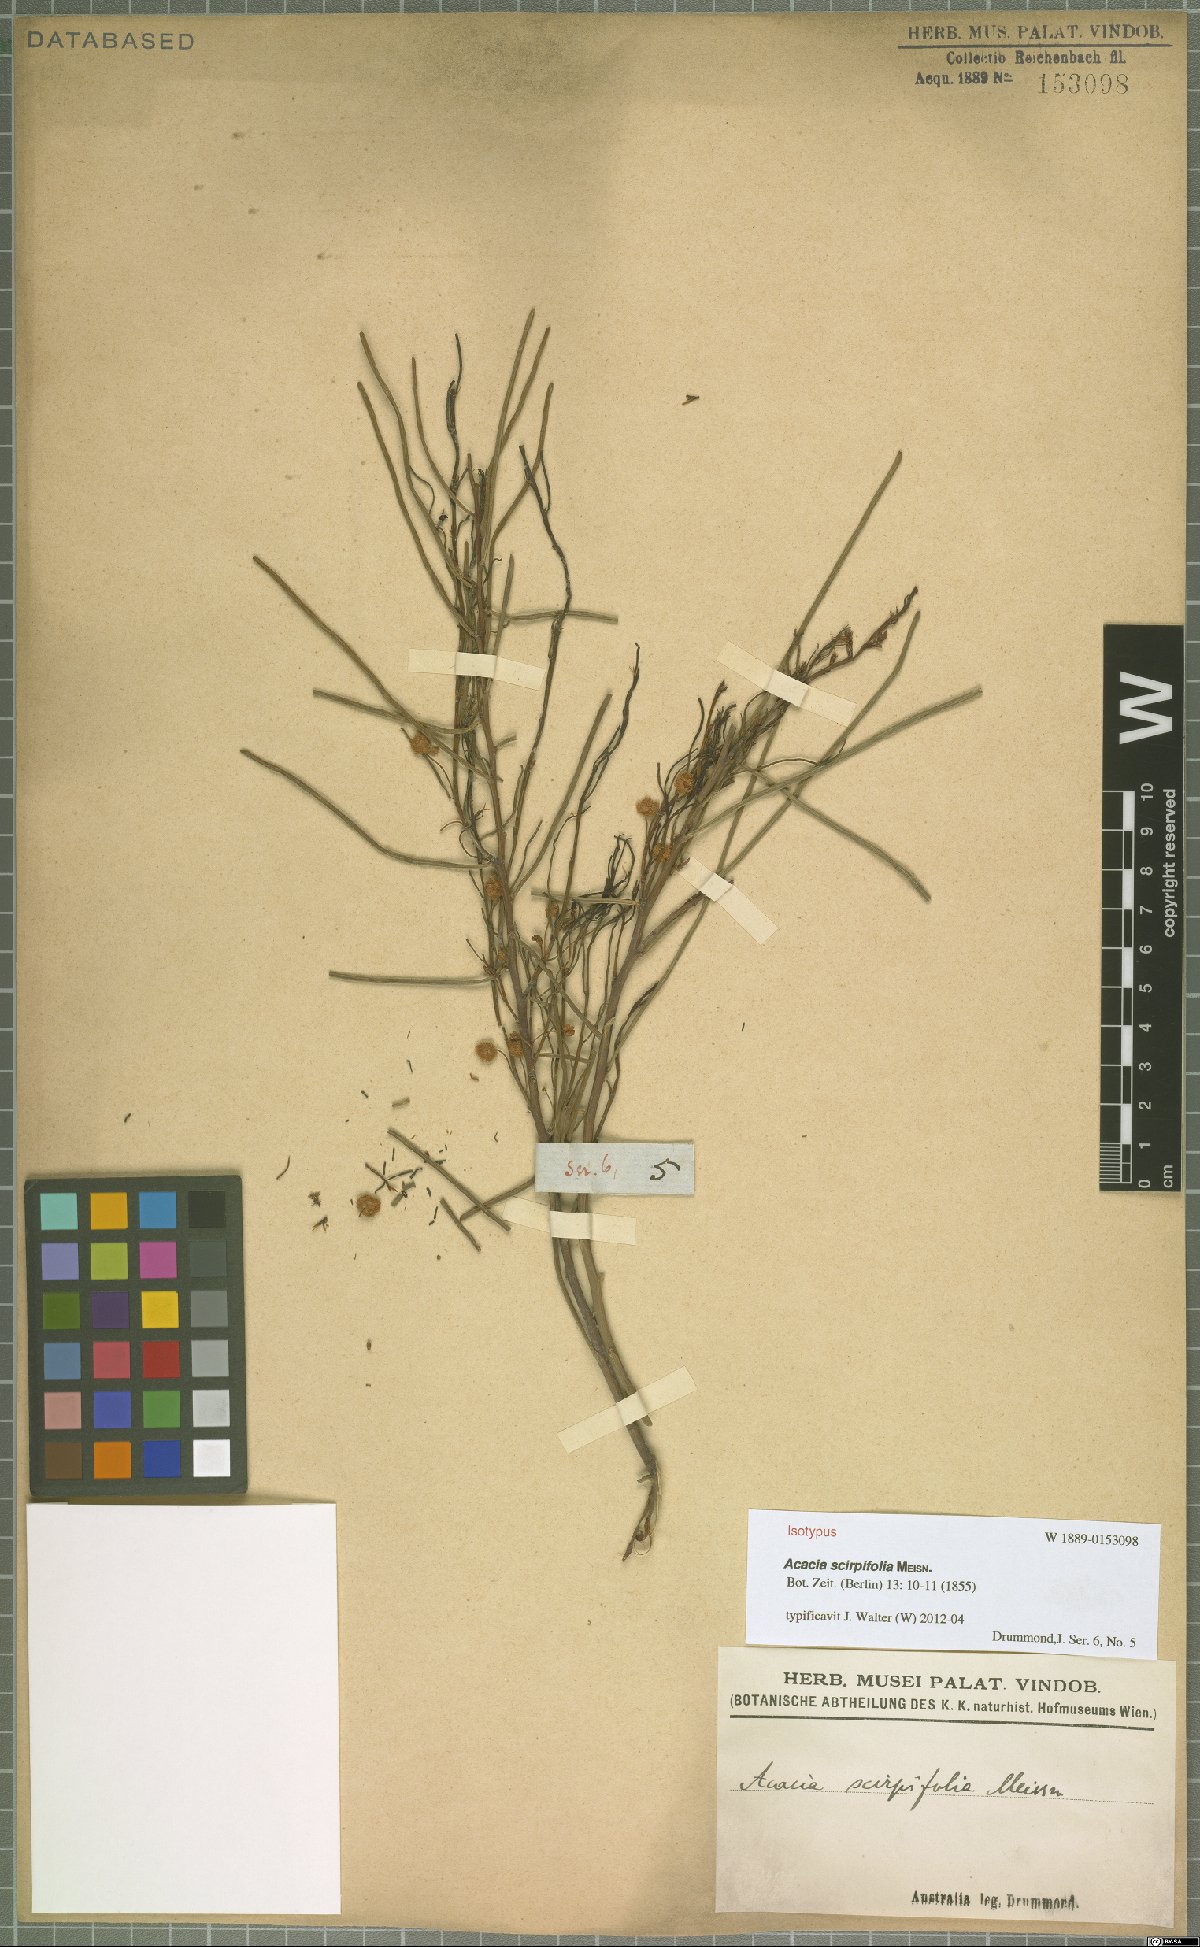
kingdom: Plantae
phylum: Tracheophyta
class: Magnoliopsida
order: Fabales
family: Fabaceae
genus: Acacia
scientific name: Acacia scirpifolia
